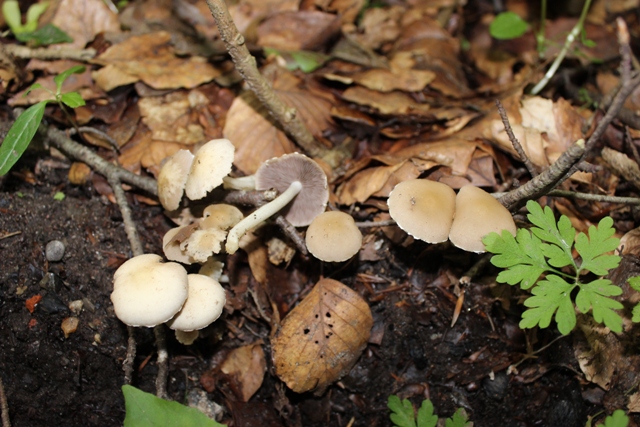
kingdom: Fungi
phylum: Basidiomycota
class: Agaricomycetes
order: Agaricales
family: Psathyrellaceae
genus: Candolleomyces
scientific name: Candolleomyces candolleanus
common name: Candolles mørkhat
